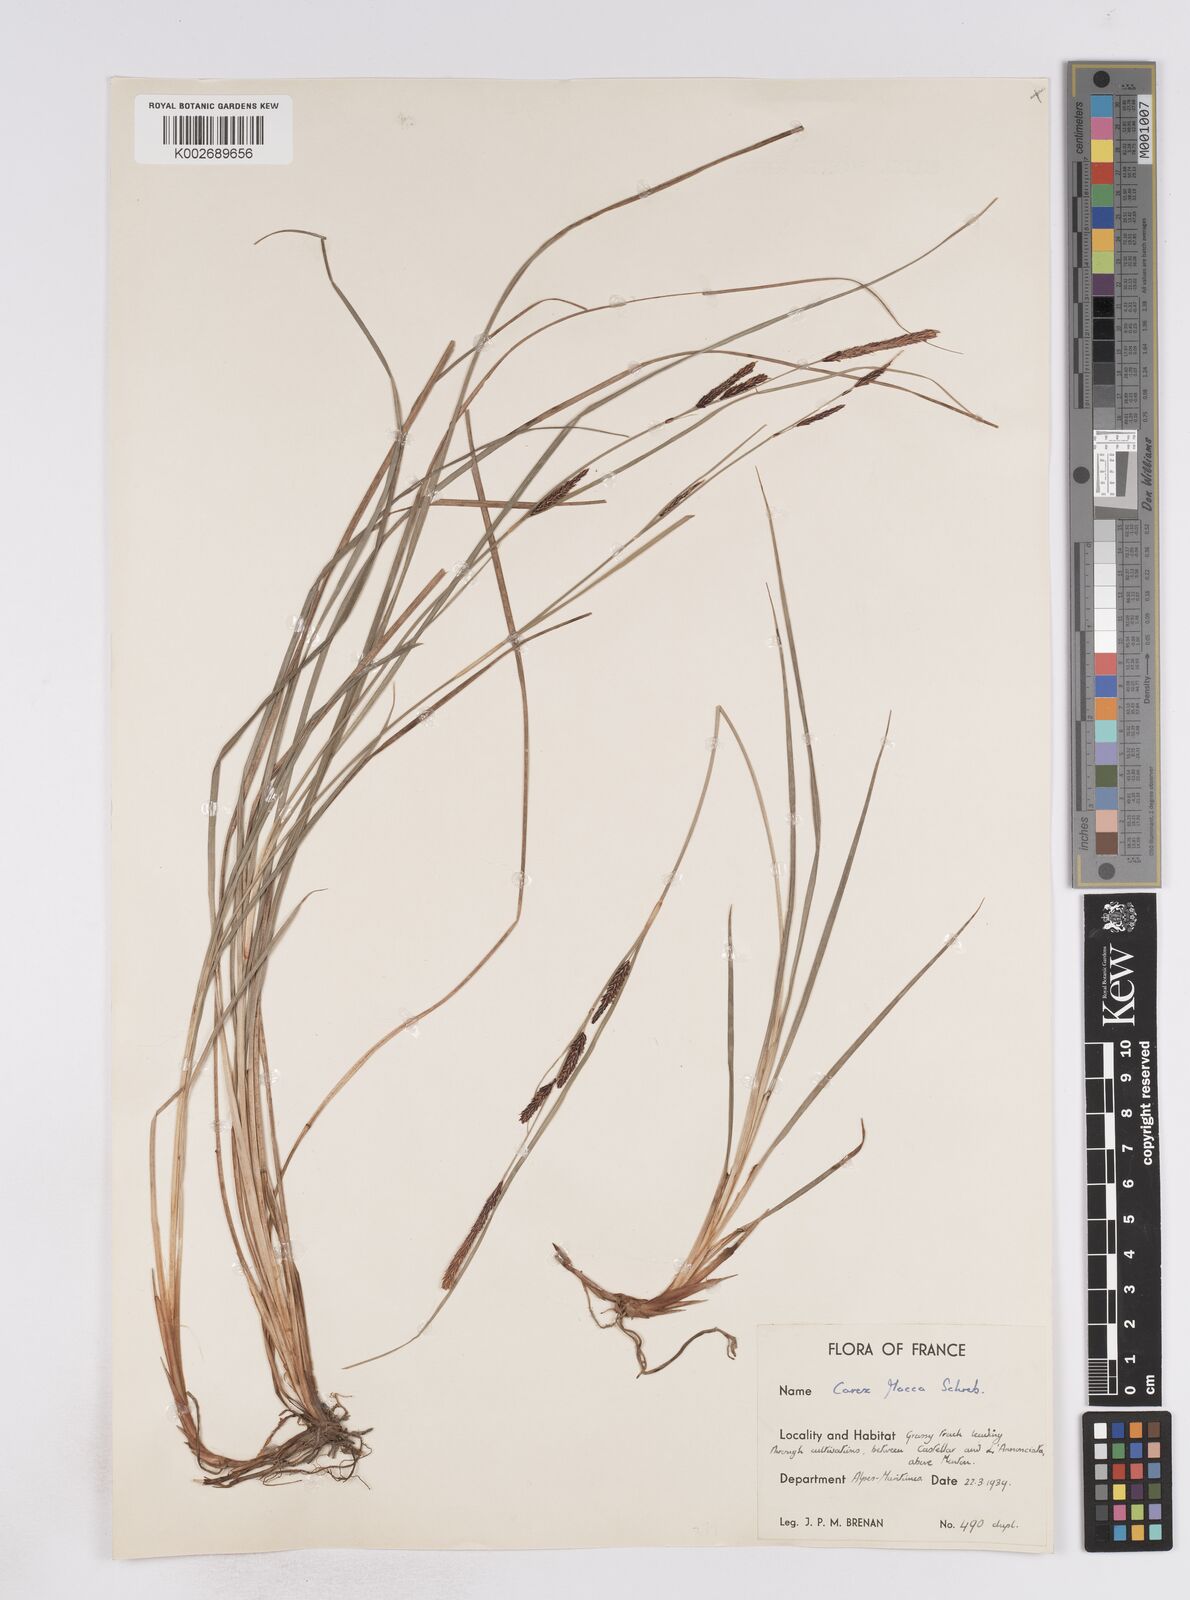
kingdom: Plantae
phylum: Tracheophyta
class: Liliopsida
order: Poales
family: Cyperaceae
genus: Carex
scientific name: Carex flacca
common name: Glaucous sedge
